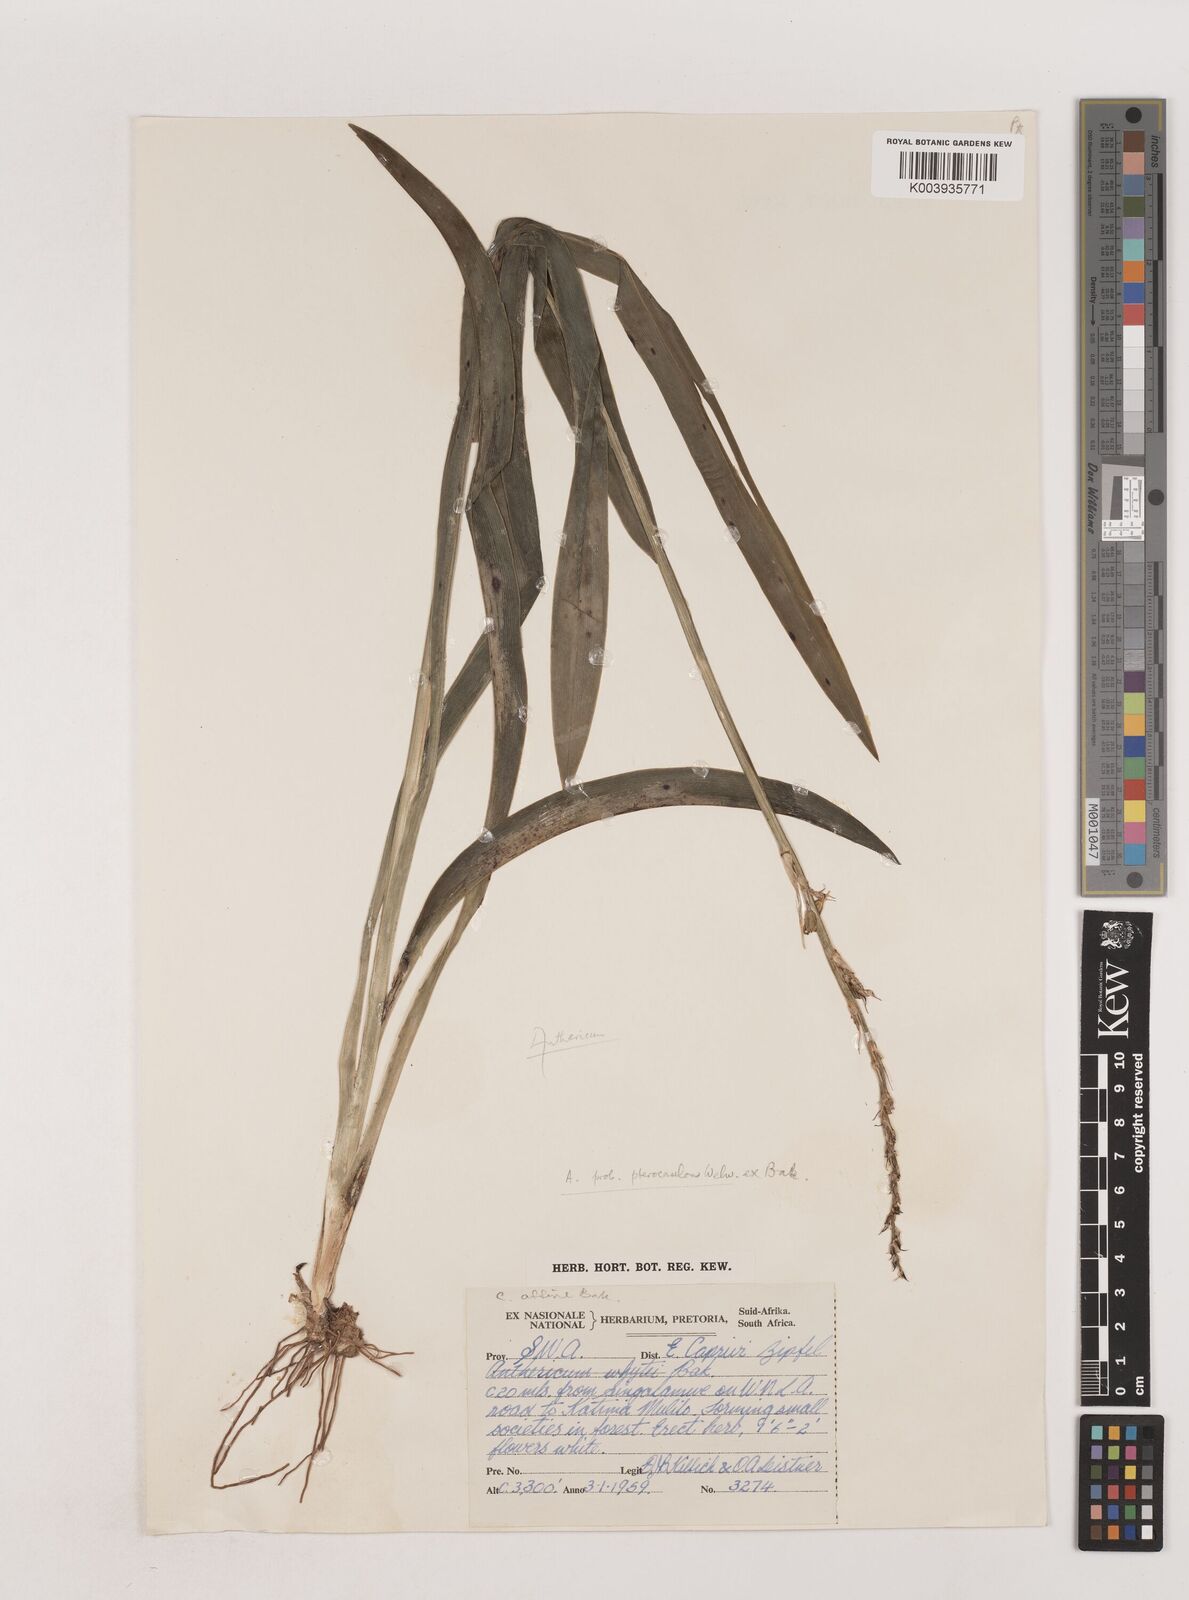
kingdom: Plantae
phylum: Tracheophyta
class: Liliopsida
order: Asparagales
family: Asparagaceae
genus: Chlorophytum
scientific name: Chlorophytum sphacelatum
